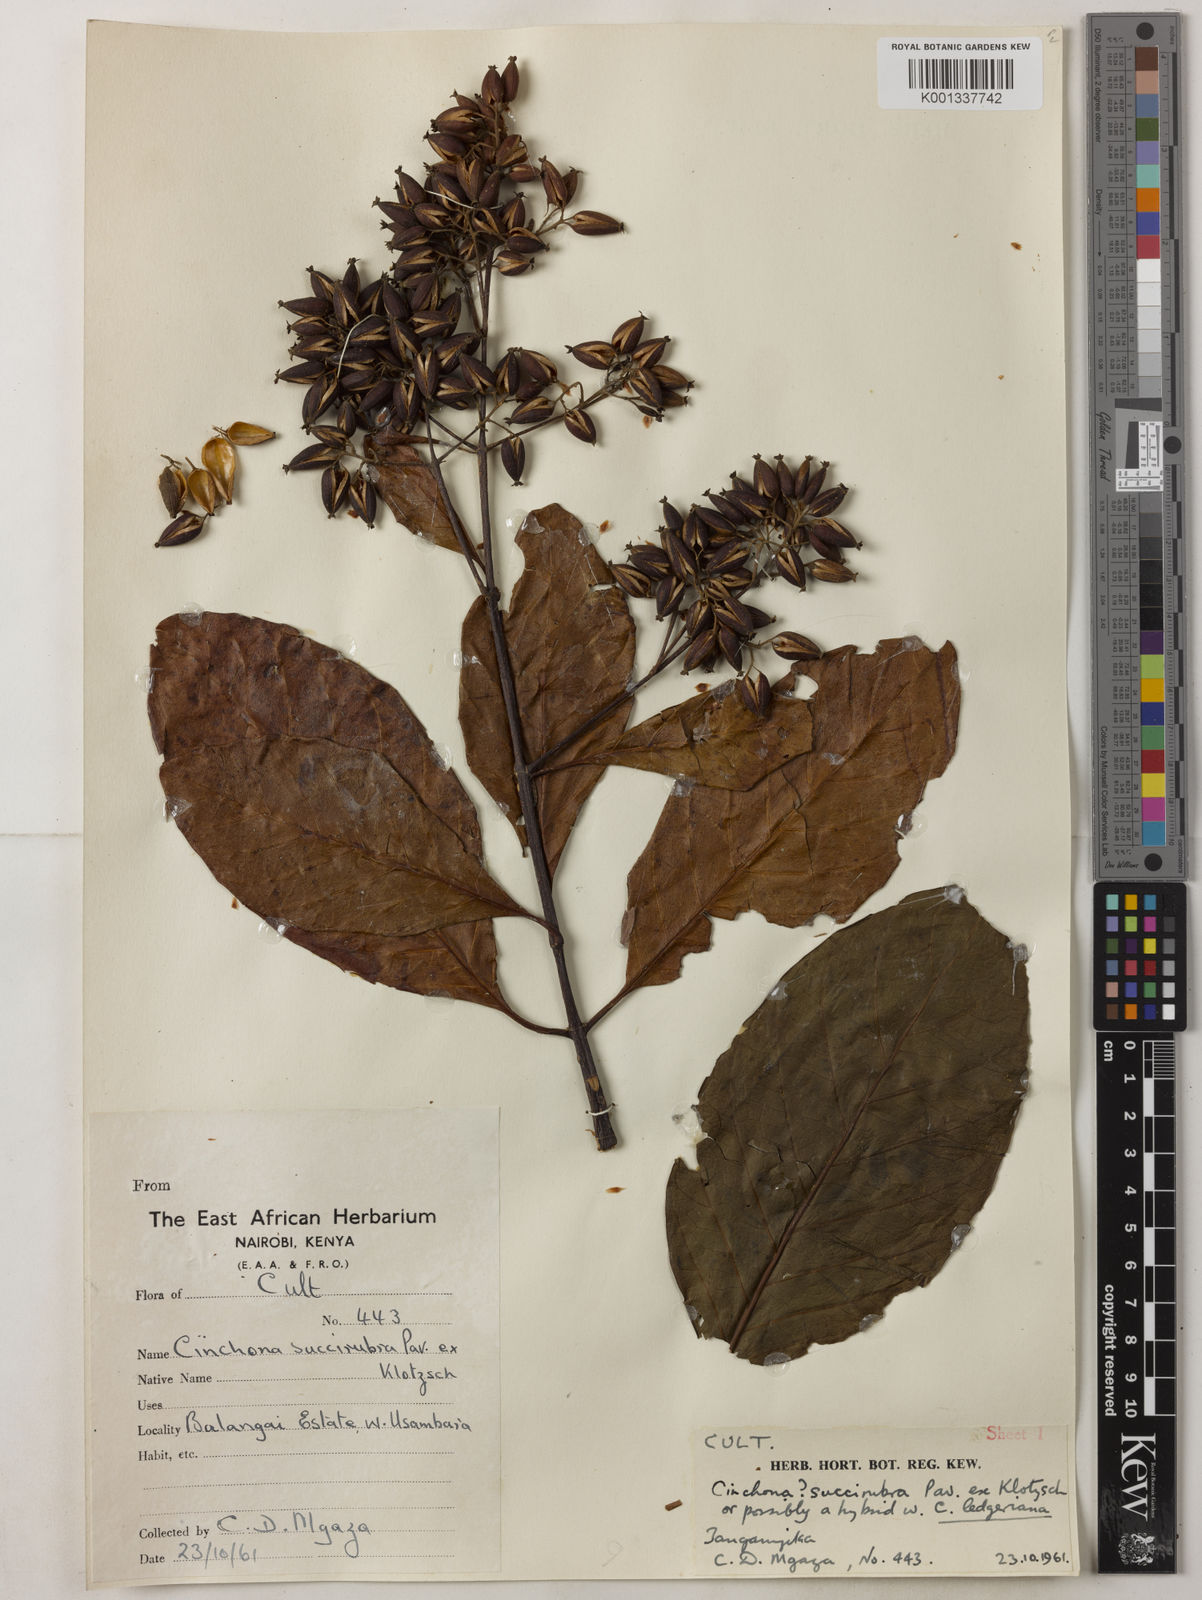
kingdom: Plantae
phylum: Tracheophyta
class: Magnoliopsida
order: Gentianales
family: Rubiaceae
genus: Cinchona
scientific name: Cinchona
